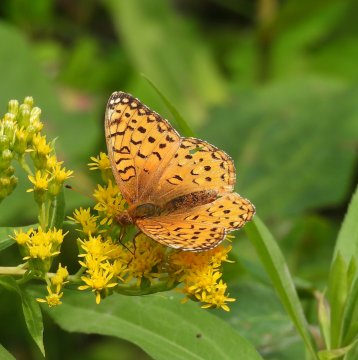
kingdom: Animalia
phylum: Arthropoda
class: Insecta
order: Lepidoptera
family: Nymphalidae
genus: Speyeria
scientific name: Speyeria aphrodite
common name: Aphrodite Fritillary
